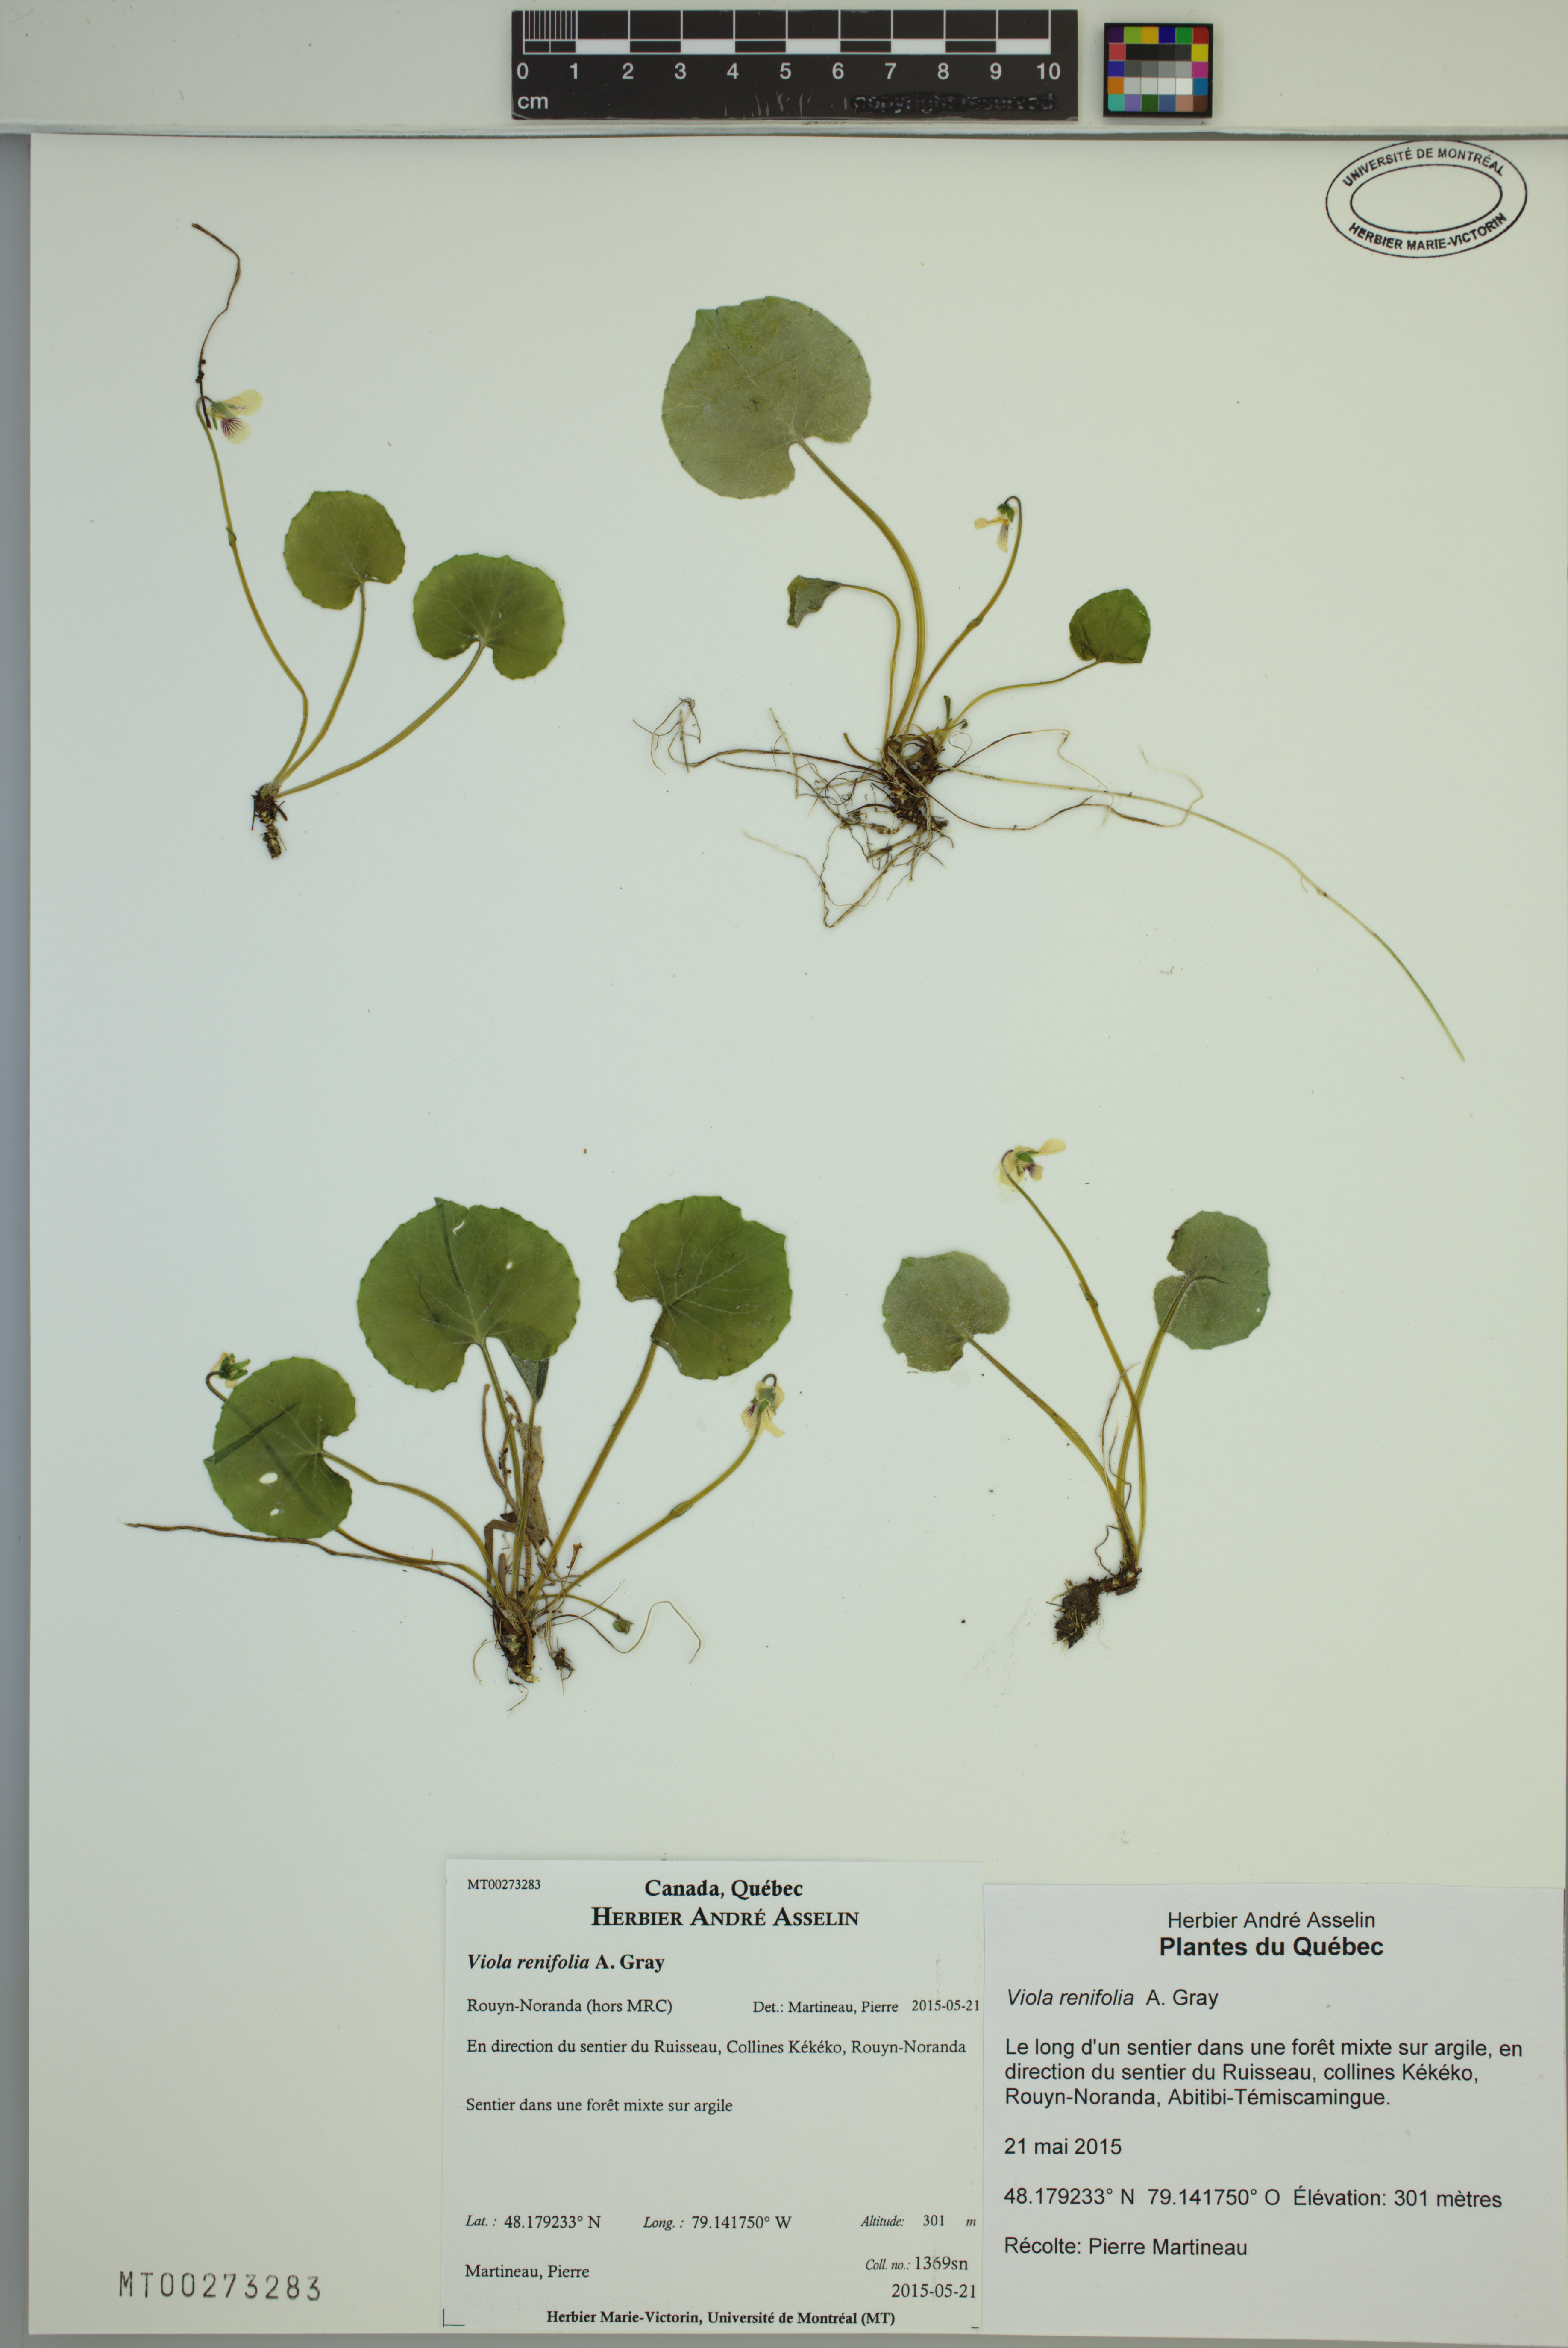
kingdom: Plantae
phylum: Tracheophyta
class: Magnoliopsida
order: Malpighiales
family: Violaceae
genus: Viola
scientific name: Viola renifolia
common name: Kidney-leaf violet
